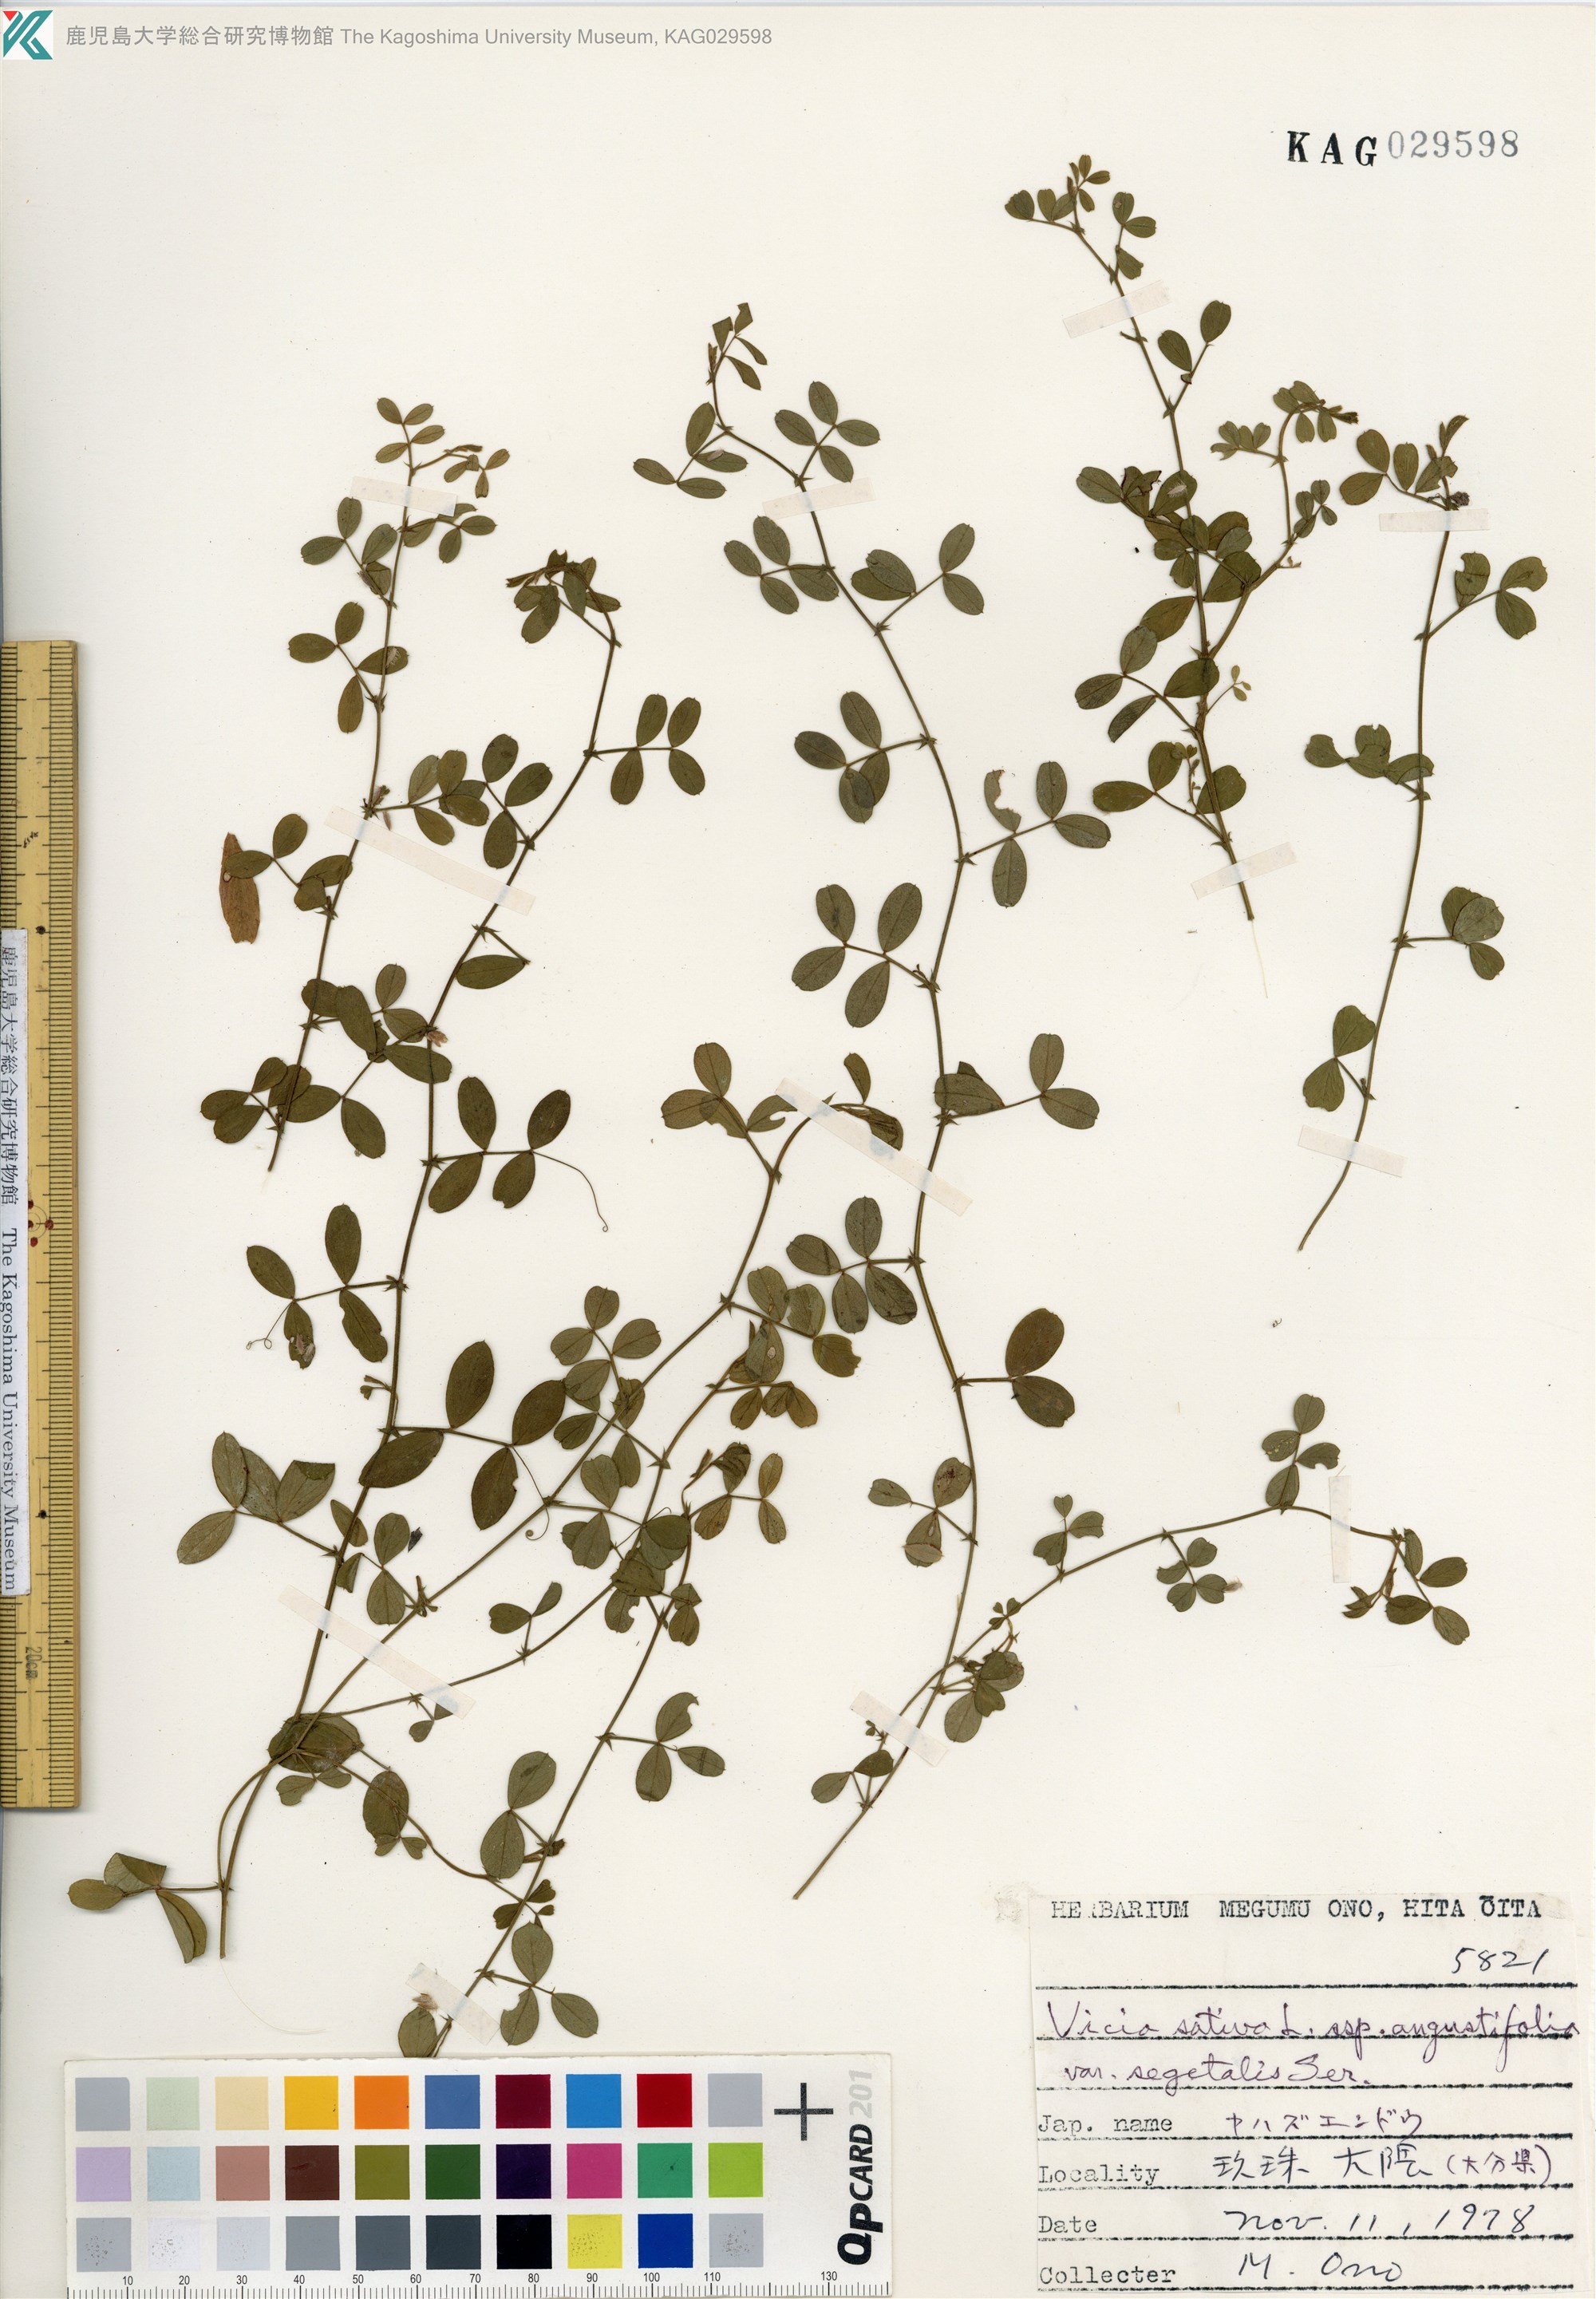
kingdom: Plantae
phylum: Tracheophyta
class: Magnoliopsida
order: Fabales
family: Fabaceae
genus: Vicia
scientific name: Vicia sativa
